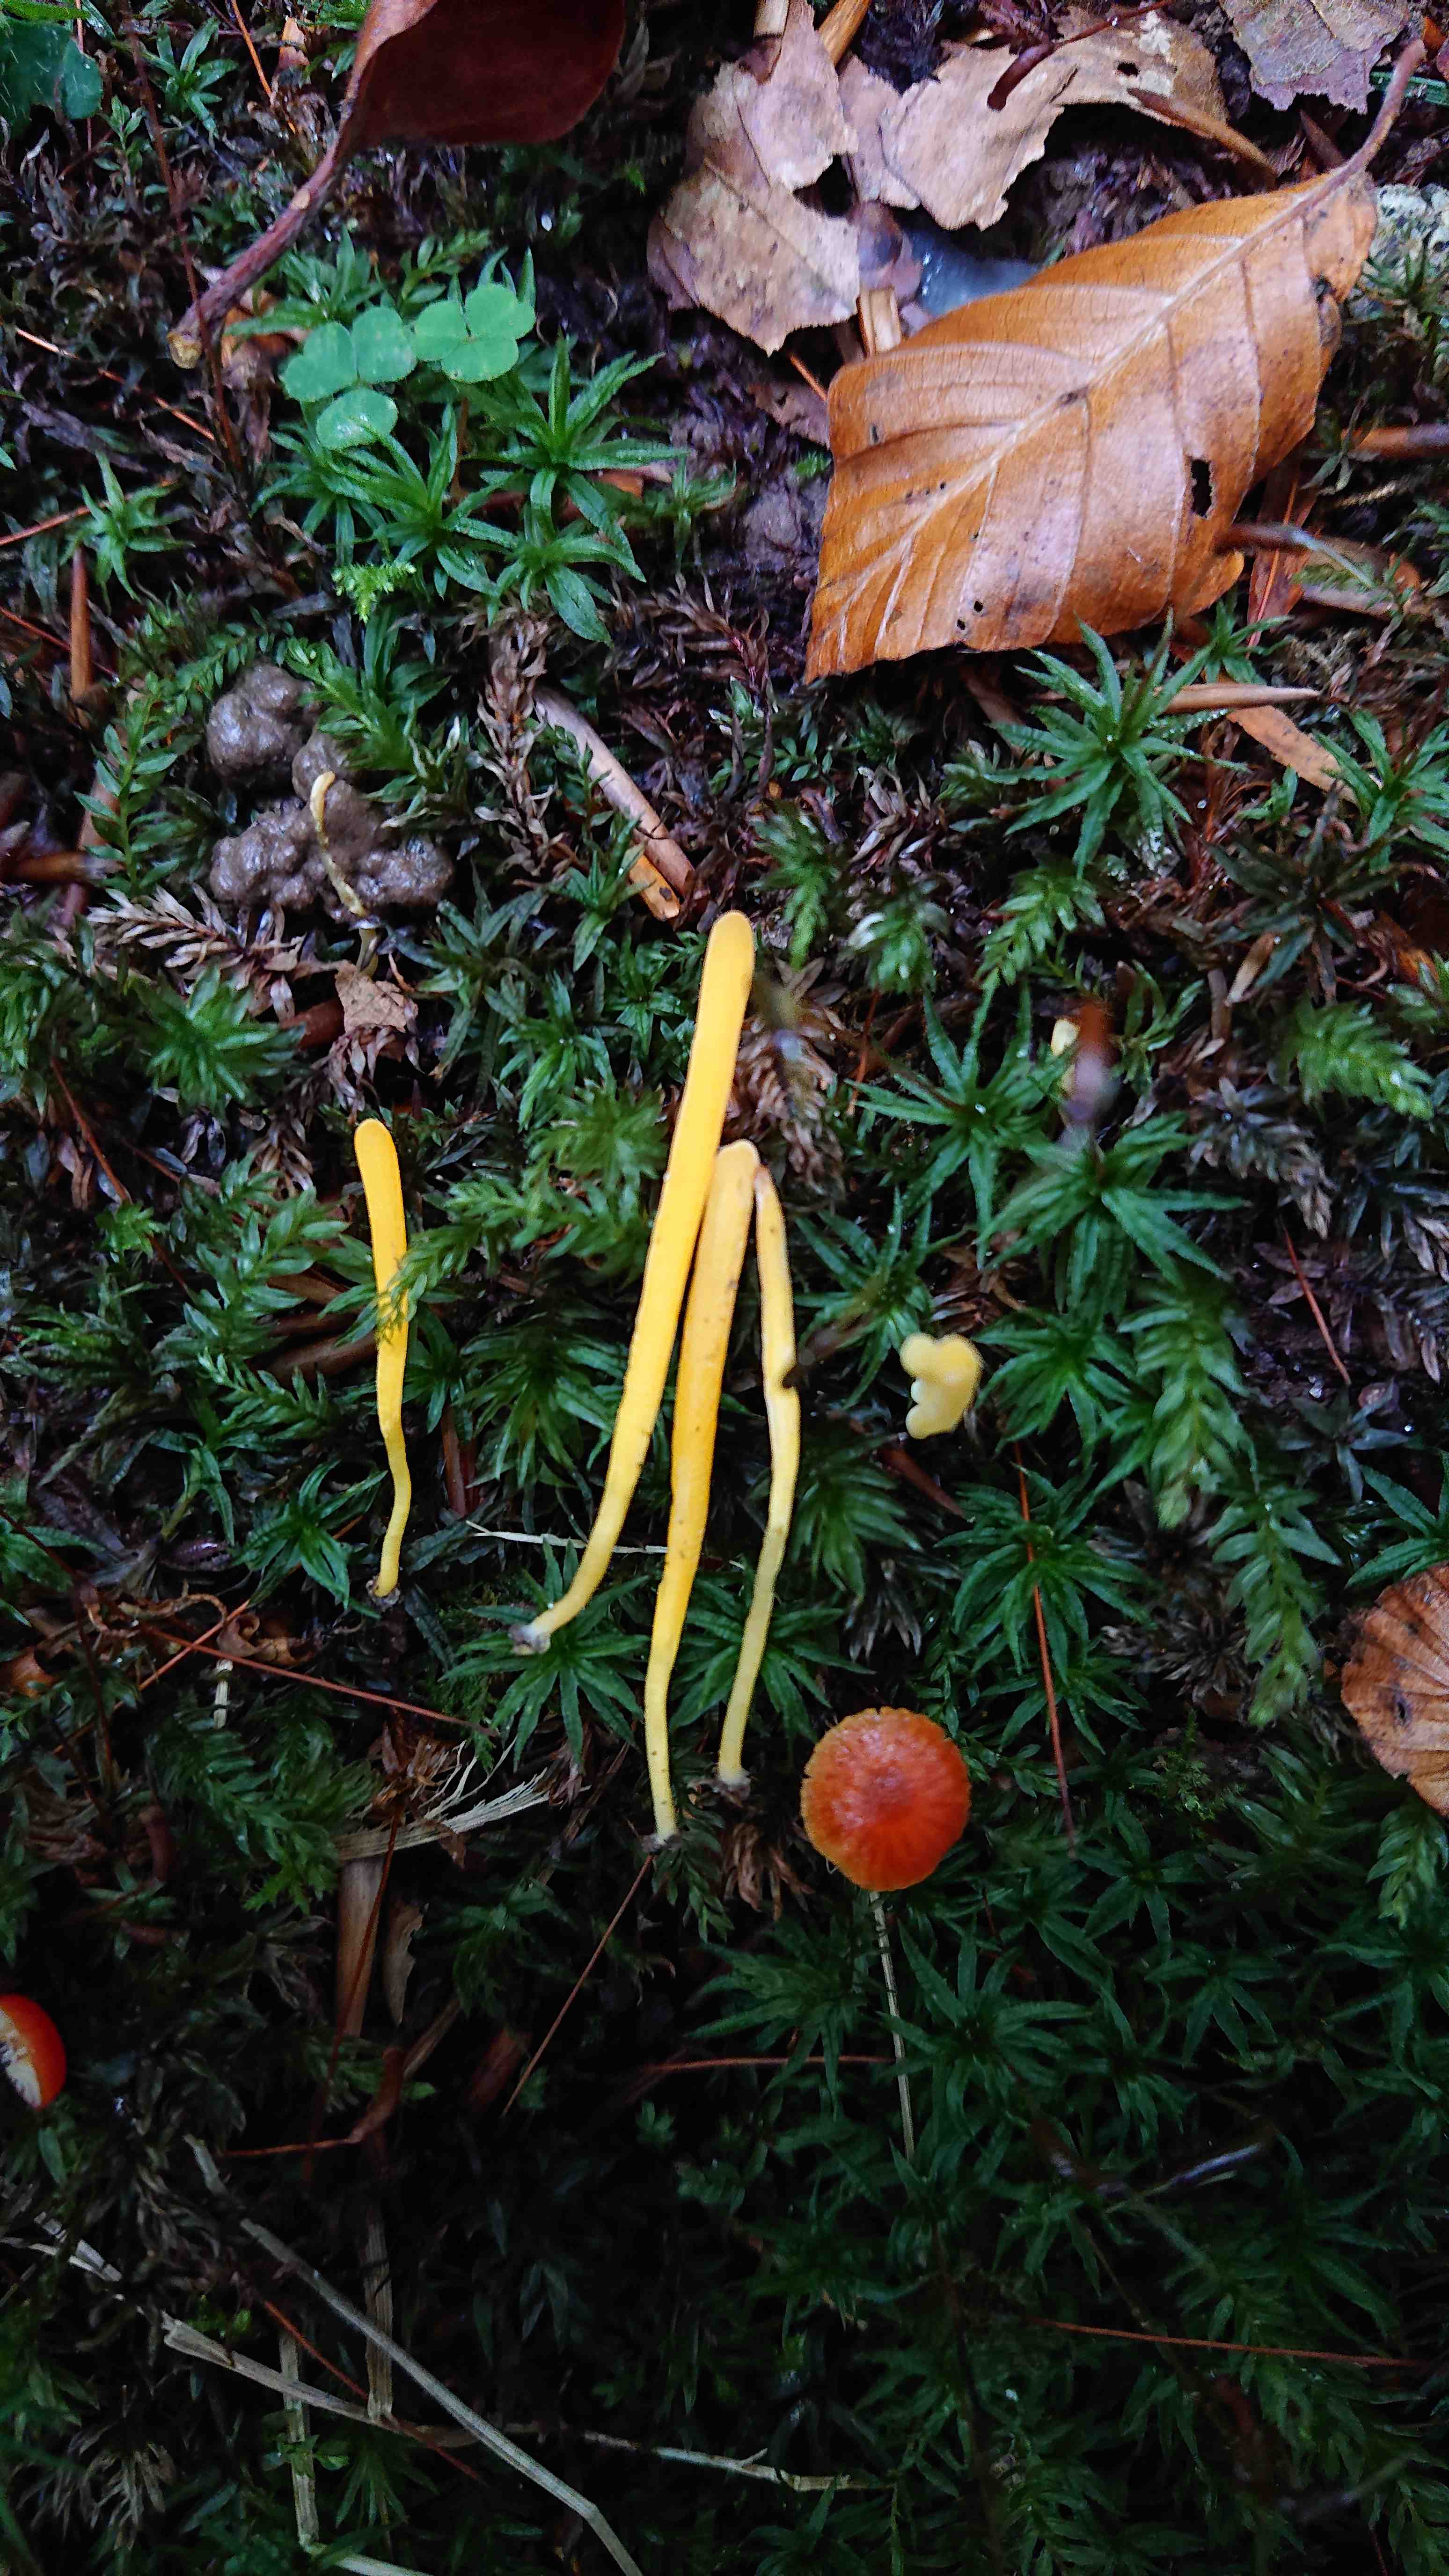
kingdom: Fungi
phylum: Basidiomycota
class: Agaricomycetes
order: Agaricales
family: Clavariaceae
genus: Clavulinopsis
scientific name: Clavulinopsis
